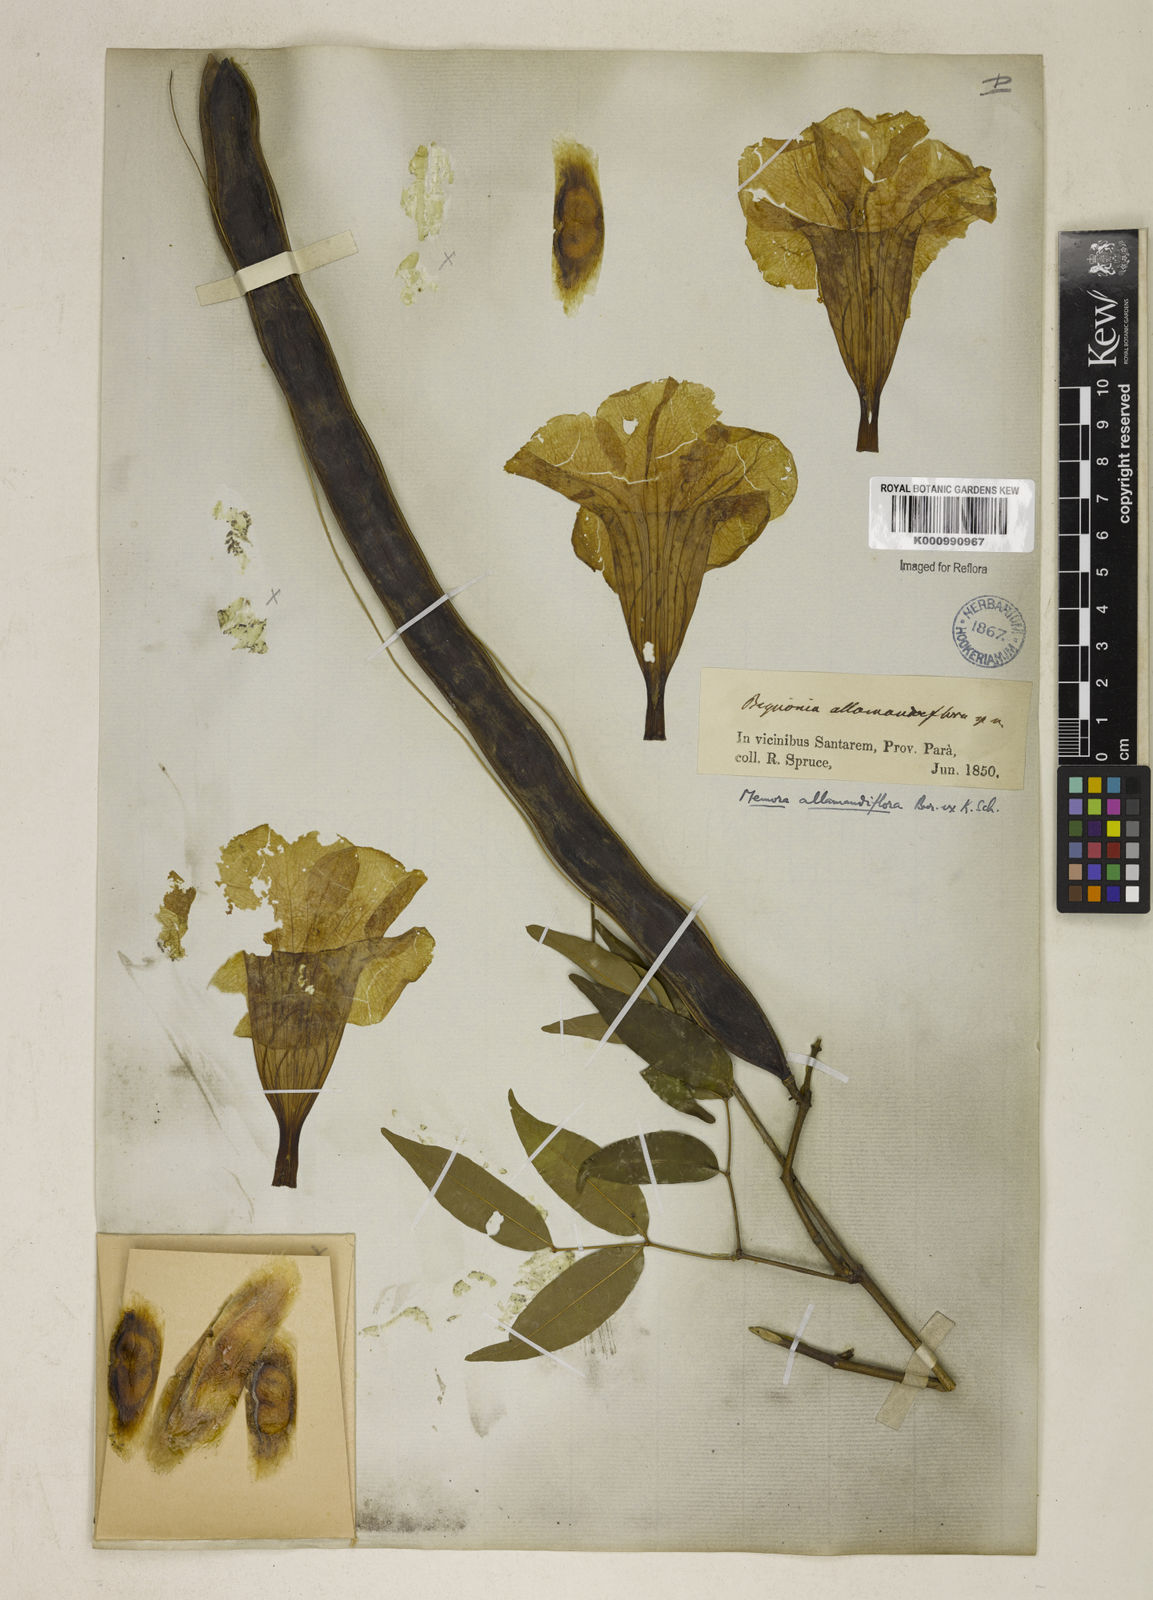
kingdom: Plantae
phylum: Tracheophyta
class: Magnoliopsida
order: Lamiales
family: Bignoniaceae
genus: Adenocalymma
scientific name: Adenocalymma
